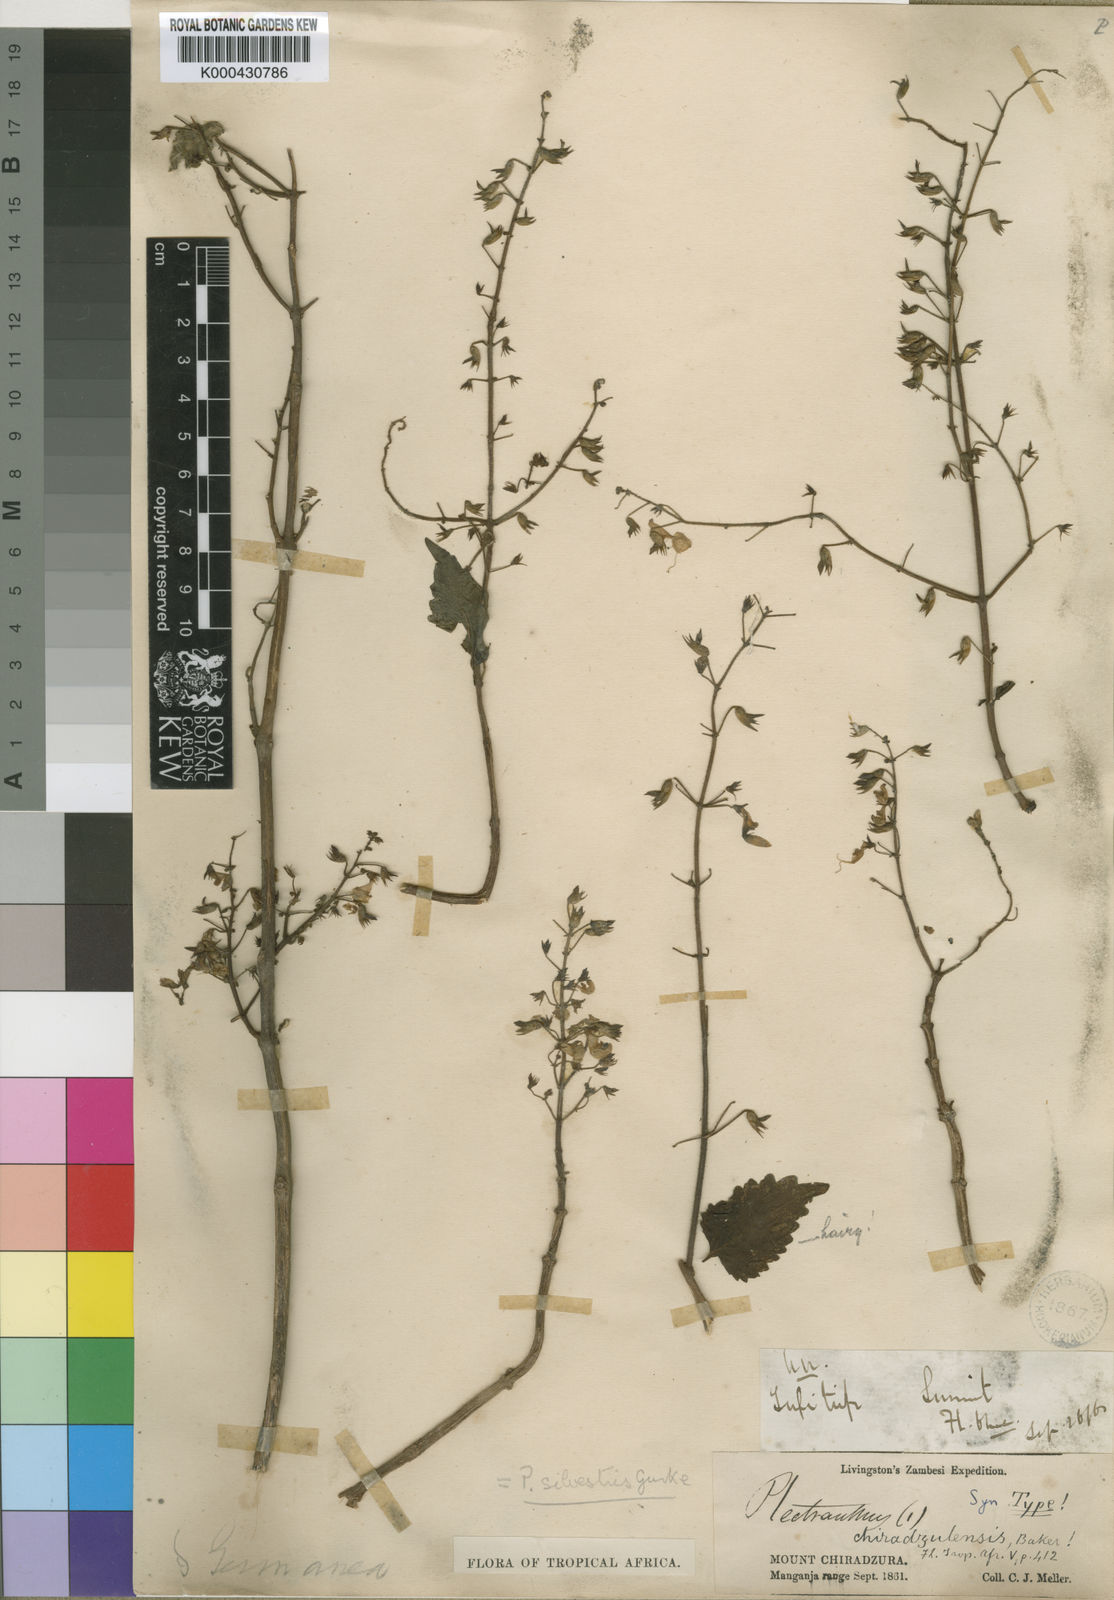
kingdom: Plantae
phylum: Tracheophyta
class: Magnoliopsida
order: Lamiales
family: Lamiaceae
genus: Plectranthus
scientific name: Plectranthus
